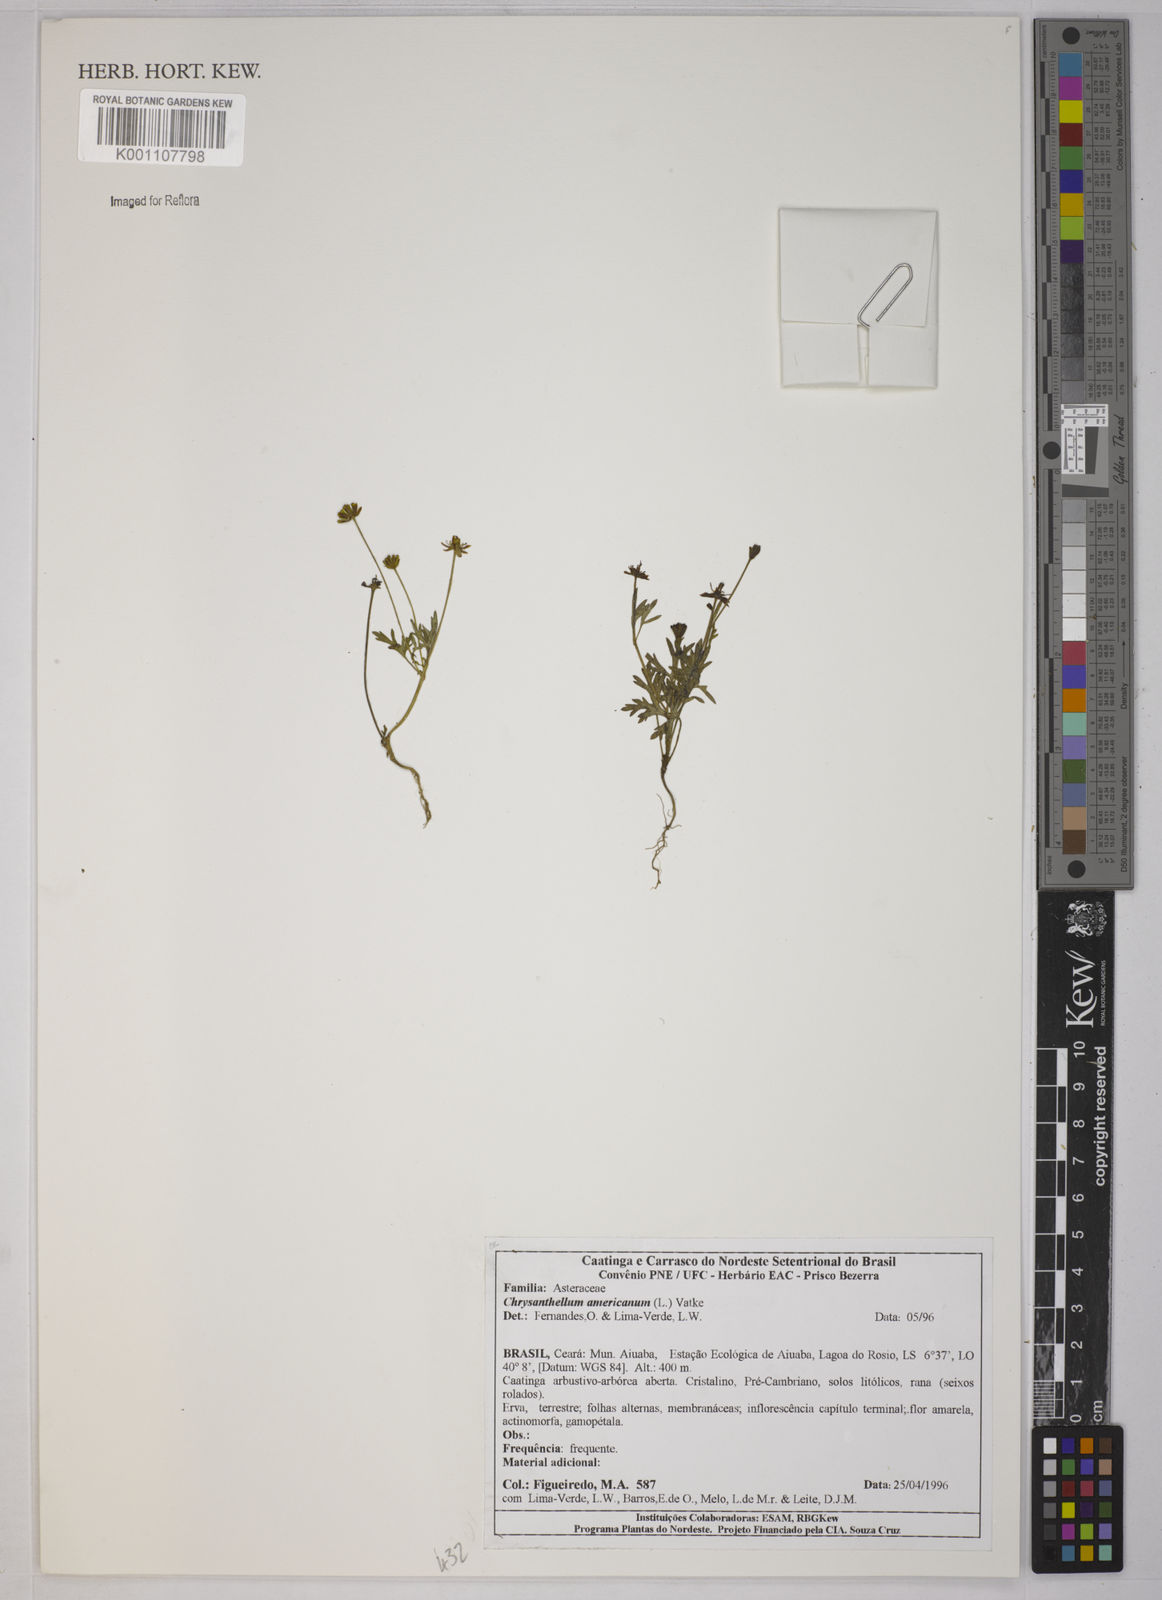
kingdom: Plantae
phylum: Tracheophyta
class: Magnoliopsida
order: Asterales
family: Asteraceae
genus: Chrysanthellum
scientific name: Chrysanthellum indicum
